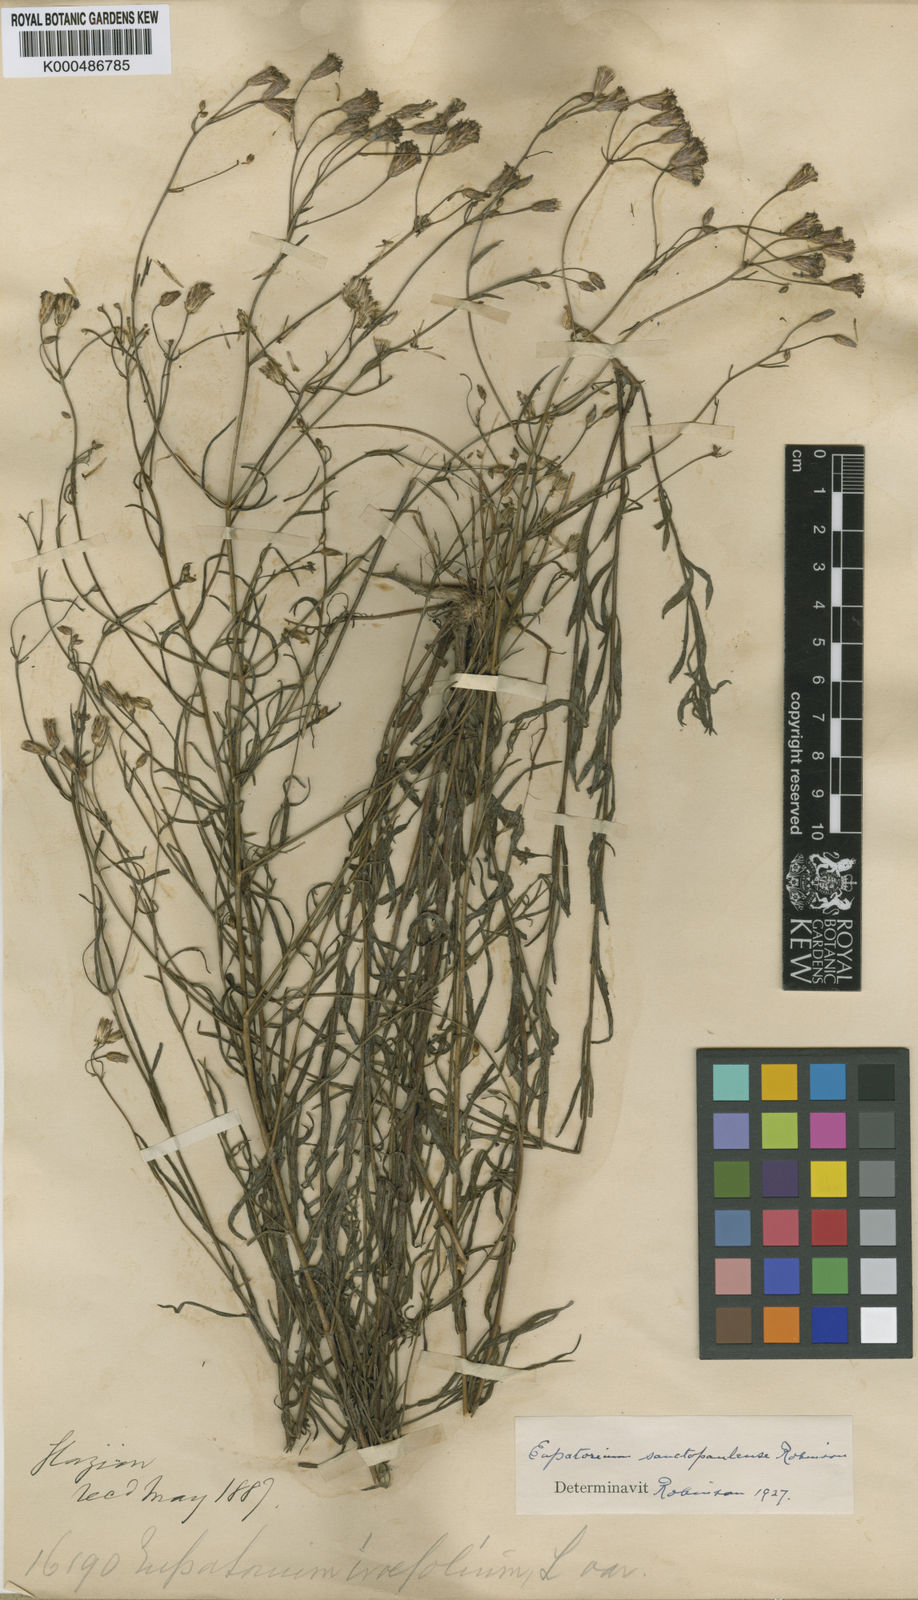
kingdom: Plantae
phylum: Tracheophyta
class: Magnoliopsida
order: Asterales
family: Asteraceae
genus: Praxelis
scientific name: Praxelis sanctopaulensis
